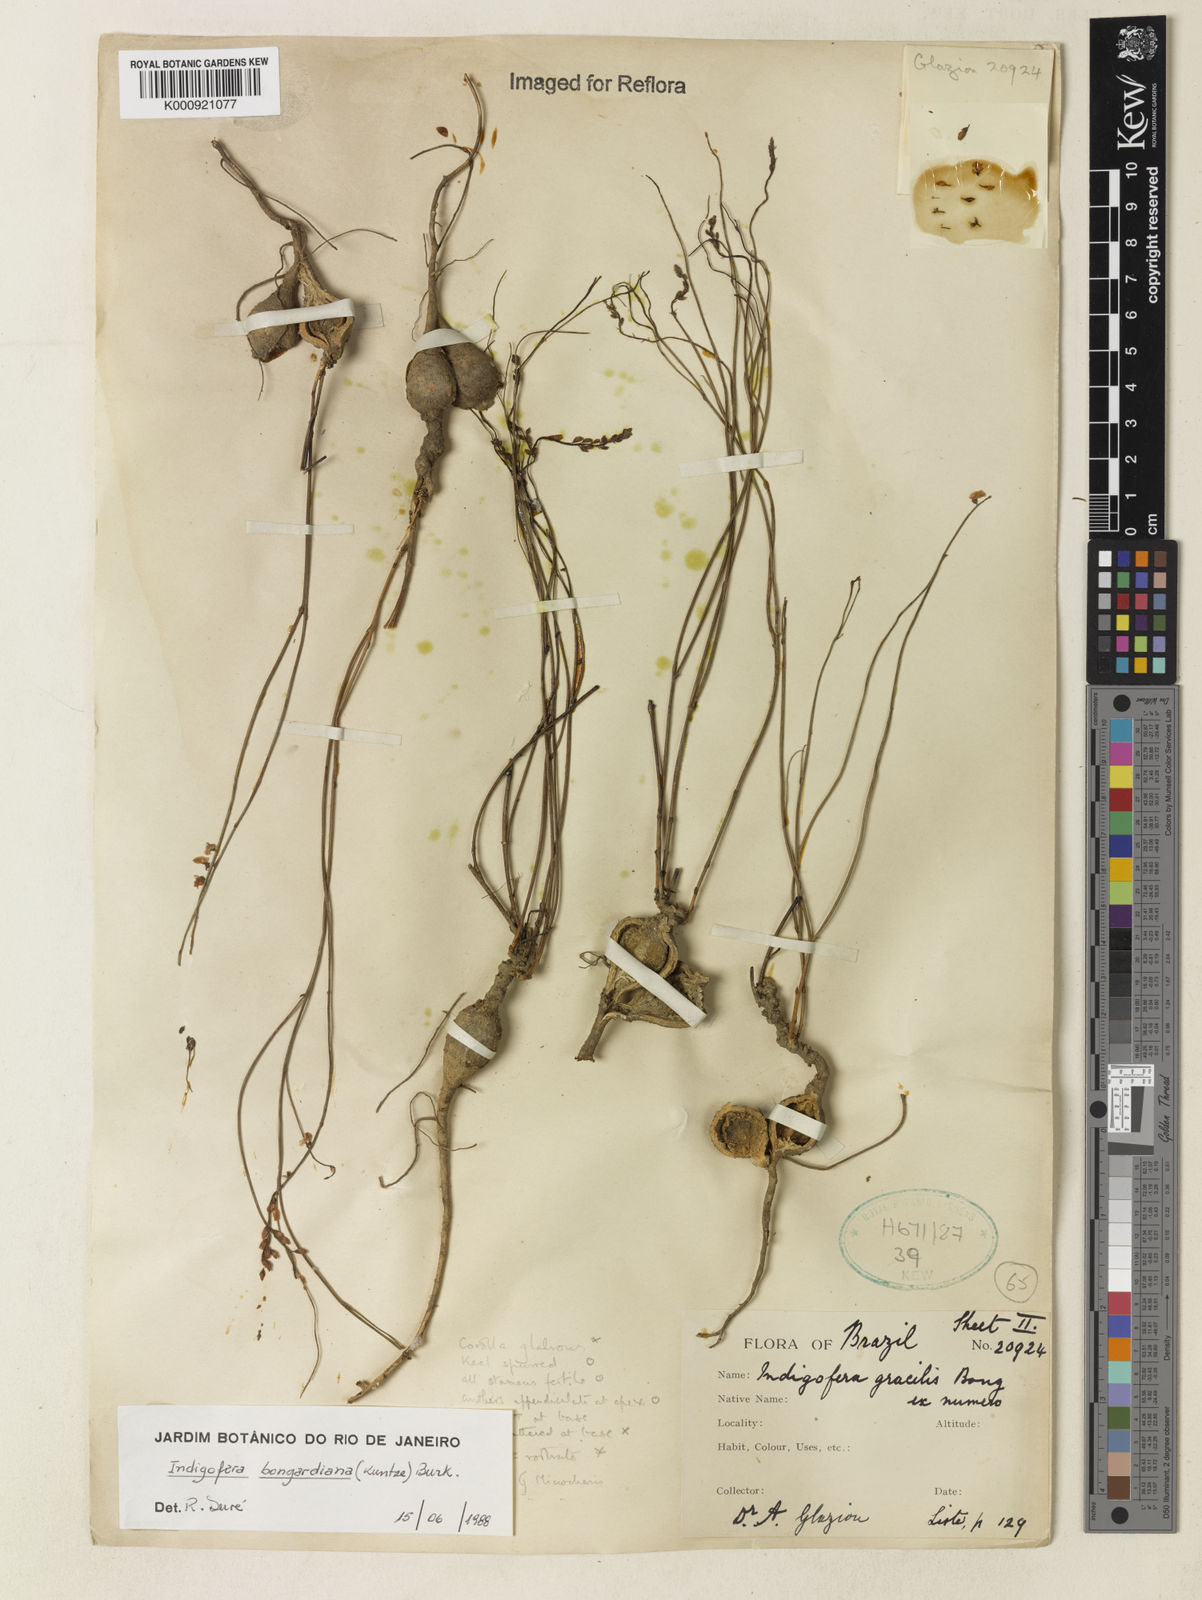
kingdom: Plantae
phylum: Tracheophyta
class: Magnoliopsida
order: Fabales
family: Fabaceae
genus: Indigofera
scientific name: Indigofera bongardiana
